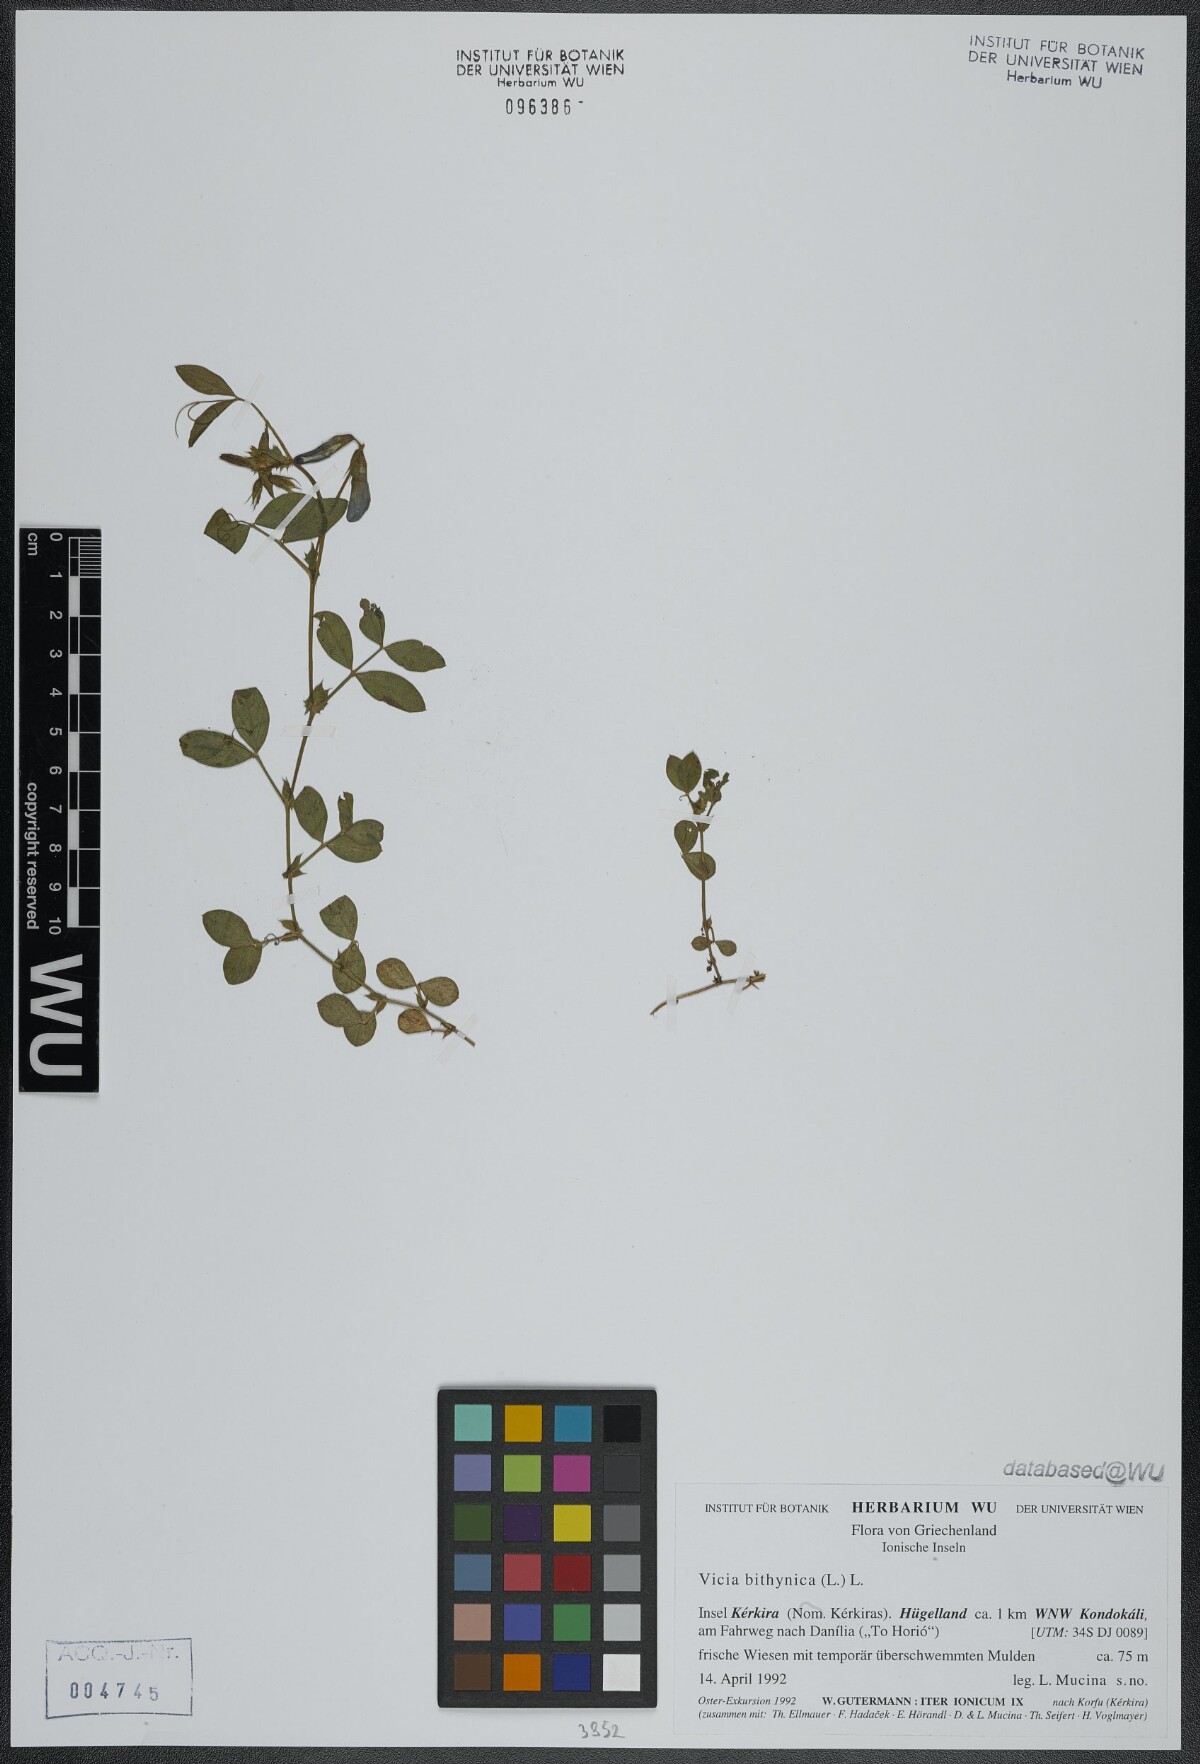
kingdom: Plantae
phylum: Tracheophyta
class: Magnoliopsida
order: Fabales
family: Fabaceae
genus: Vicia
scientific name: Vicia bithynica
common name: Bithynian vetch
